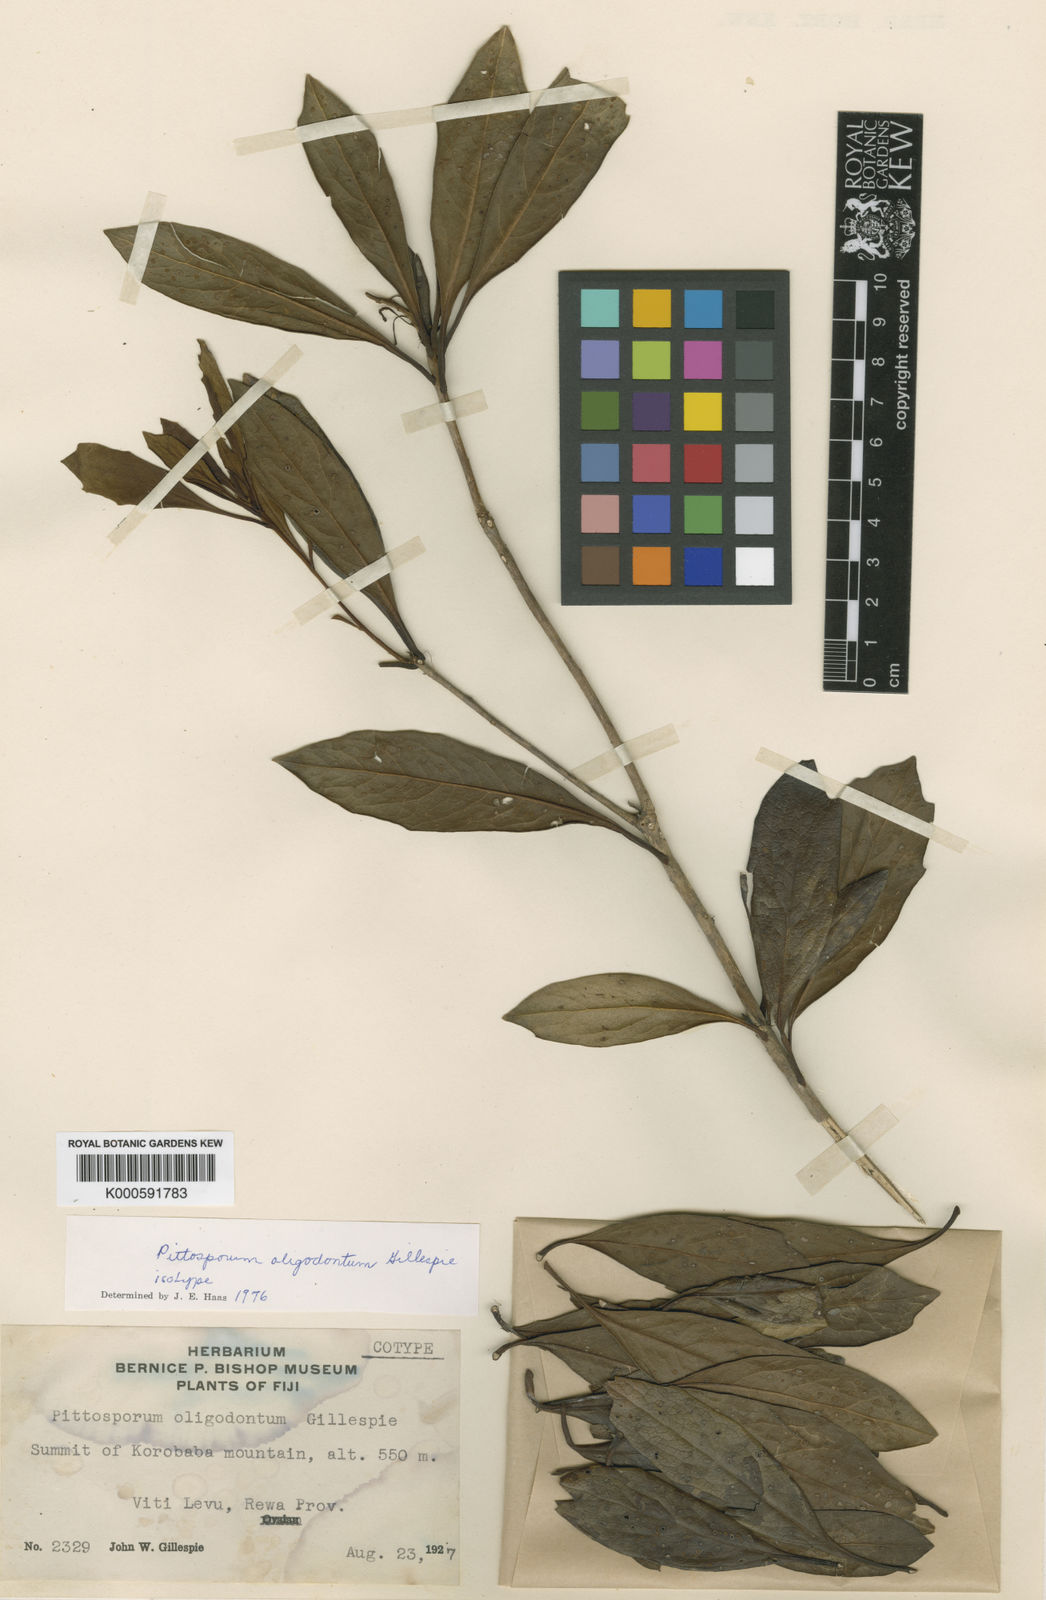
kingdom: Plantae
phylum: Tracheophyta
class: Magnoliopsida
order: Apiales
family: Pittosporaceae
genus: Pittosporum
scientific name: Pittosporum oligodontum
